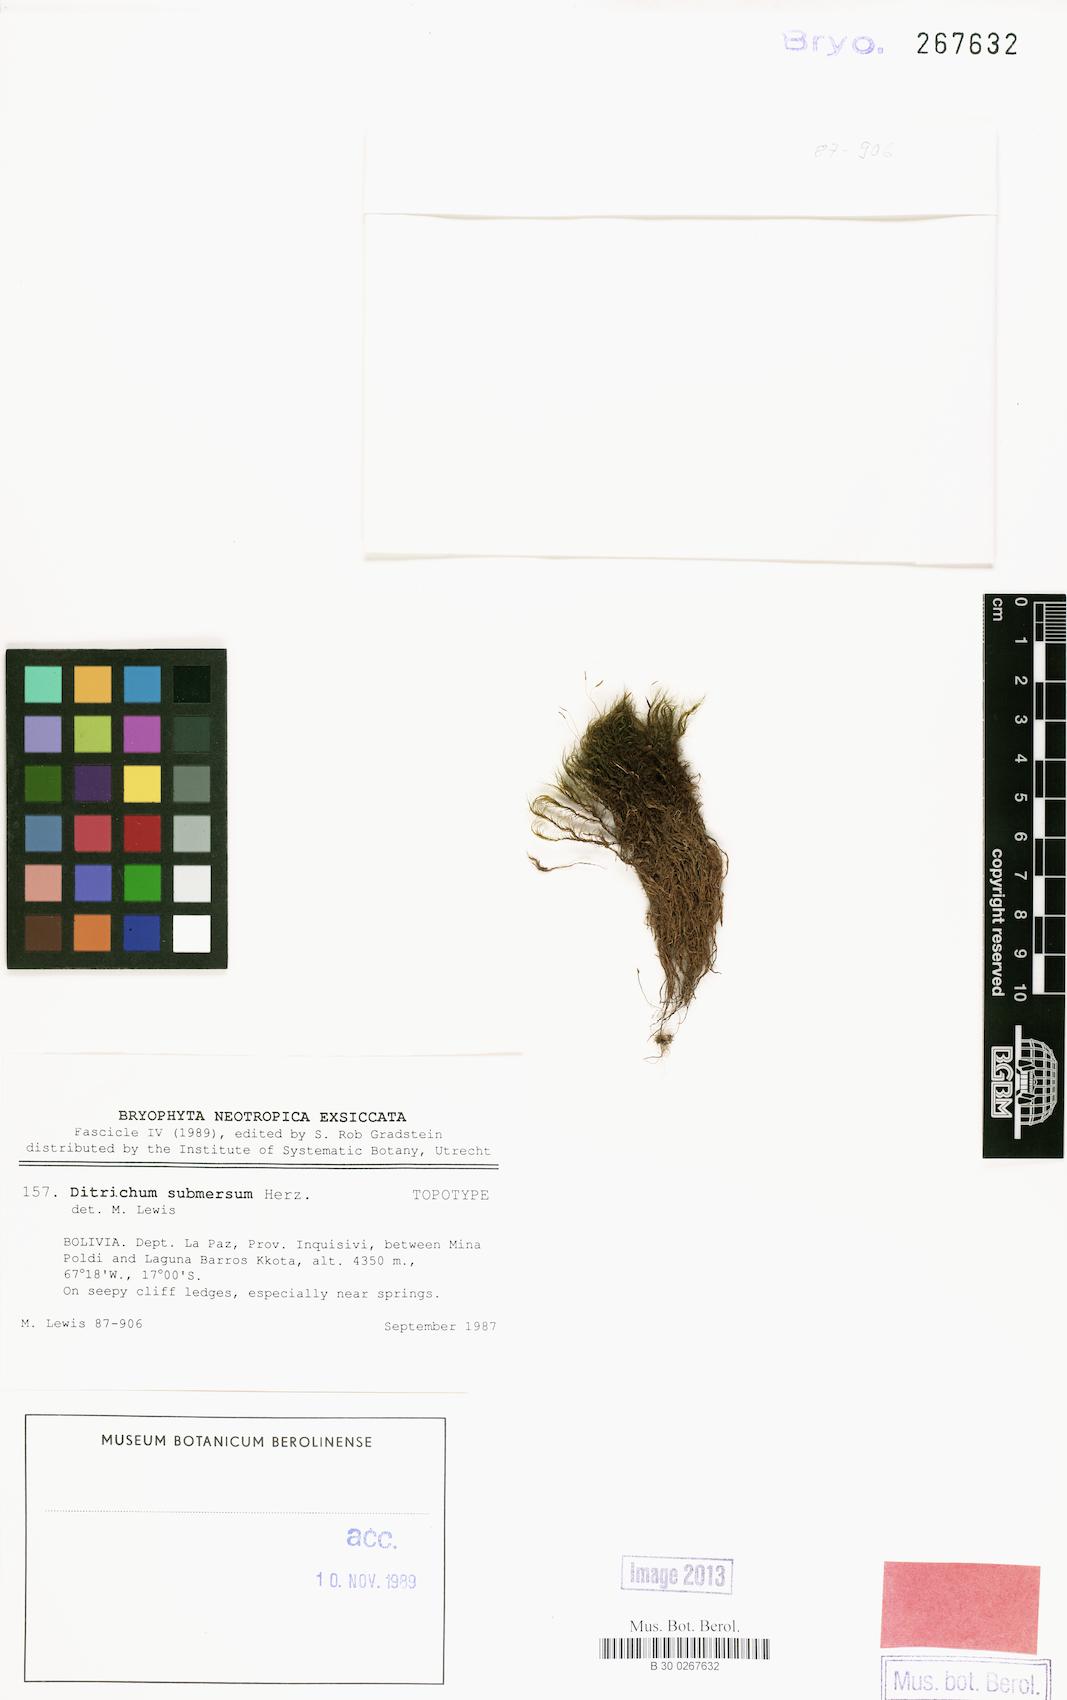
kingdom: Plantae
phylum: Bryophyta
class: Bryopsida
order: Dicranales
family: Ditrichaceae
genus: Ditrichum
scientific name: Ditrichum submersum
